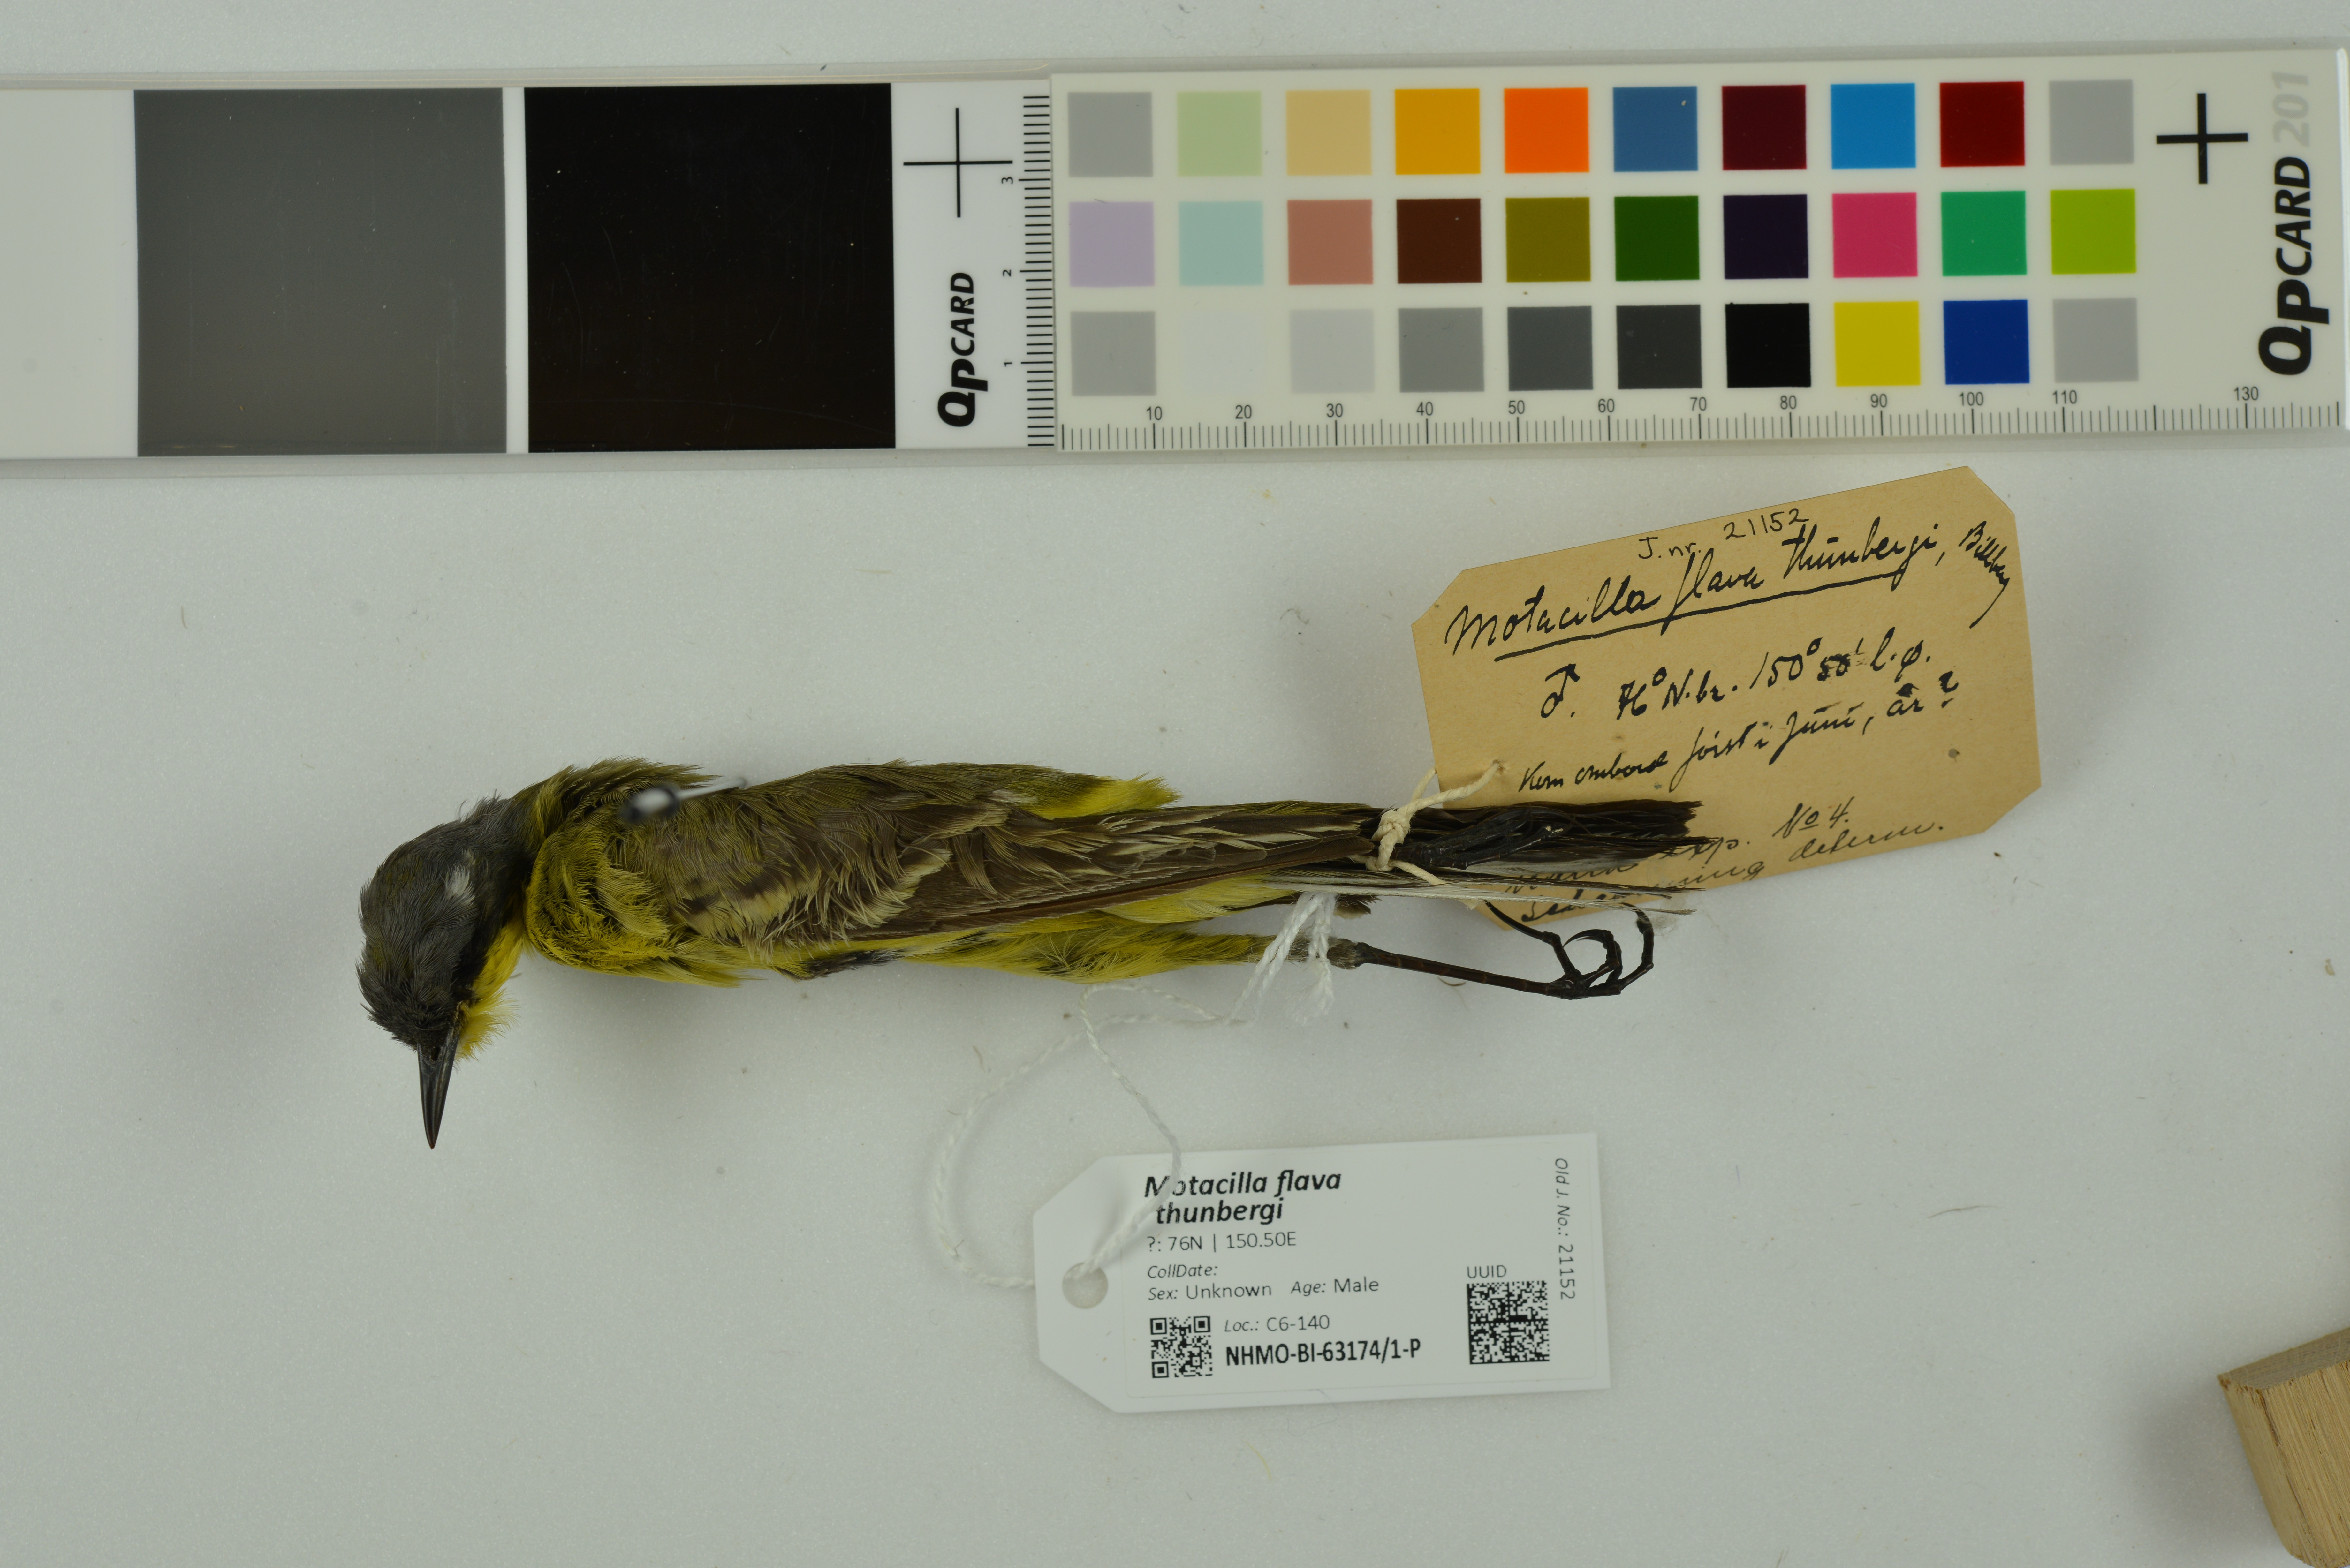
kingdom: Animalia
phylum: Chordata
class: Aves
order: Passeriformes
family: Motacillidae
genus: Motacilla
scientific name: Motacilla flava
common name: Western yellow wagtail
